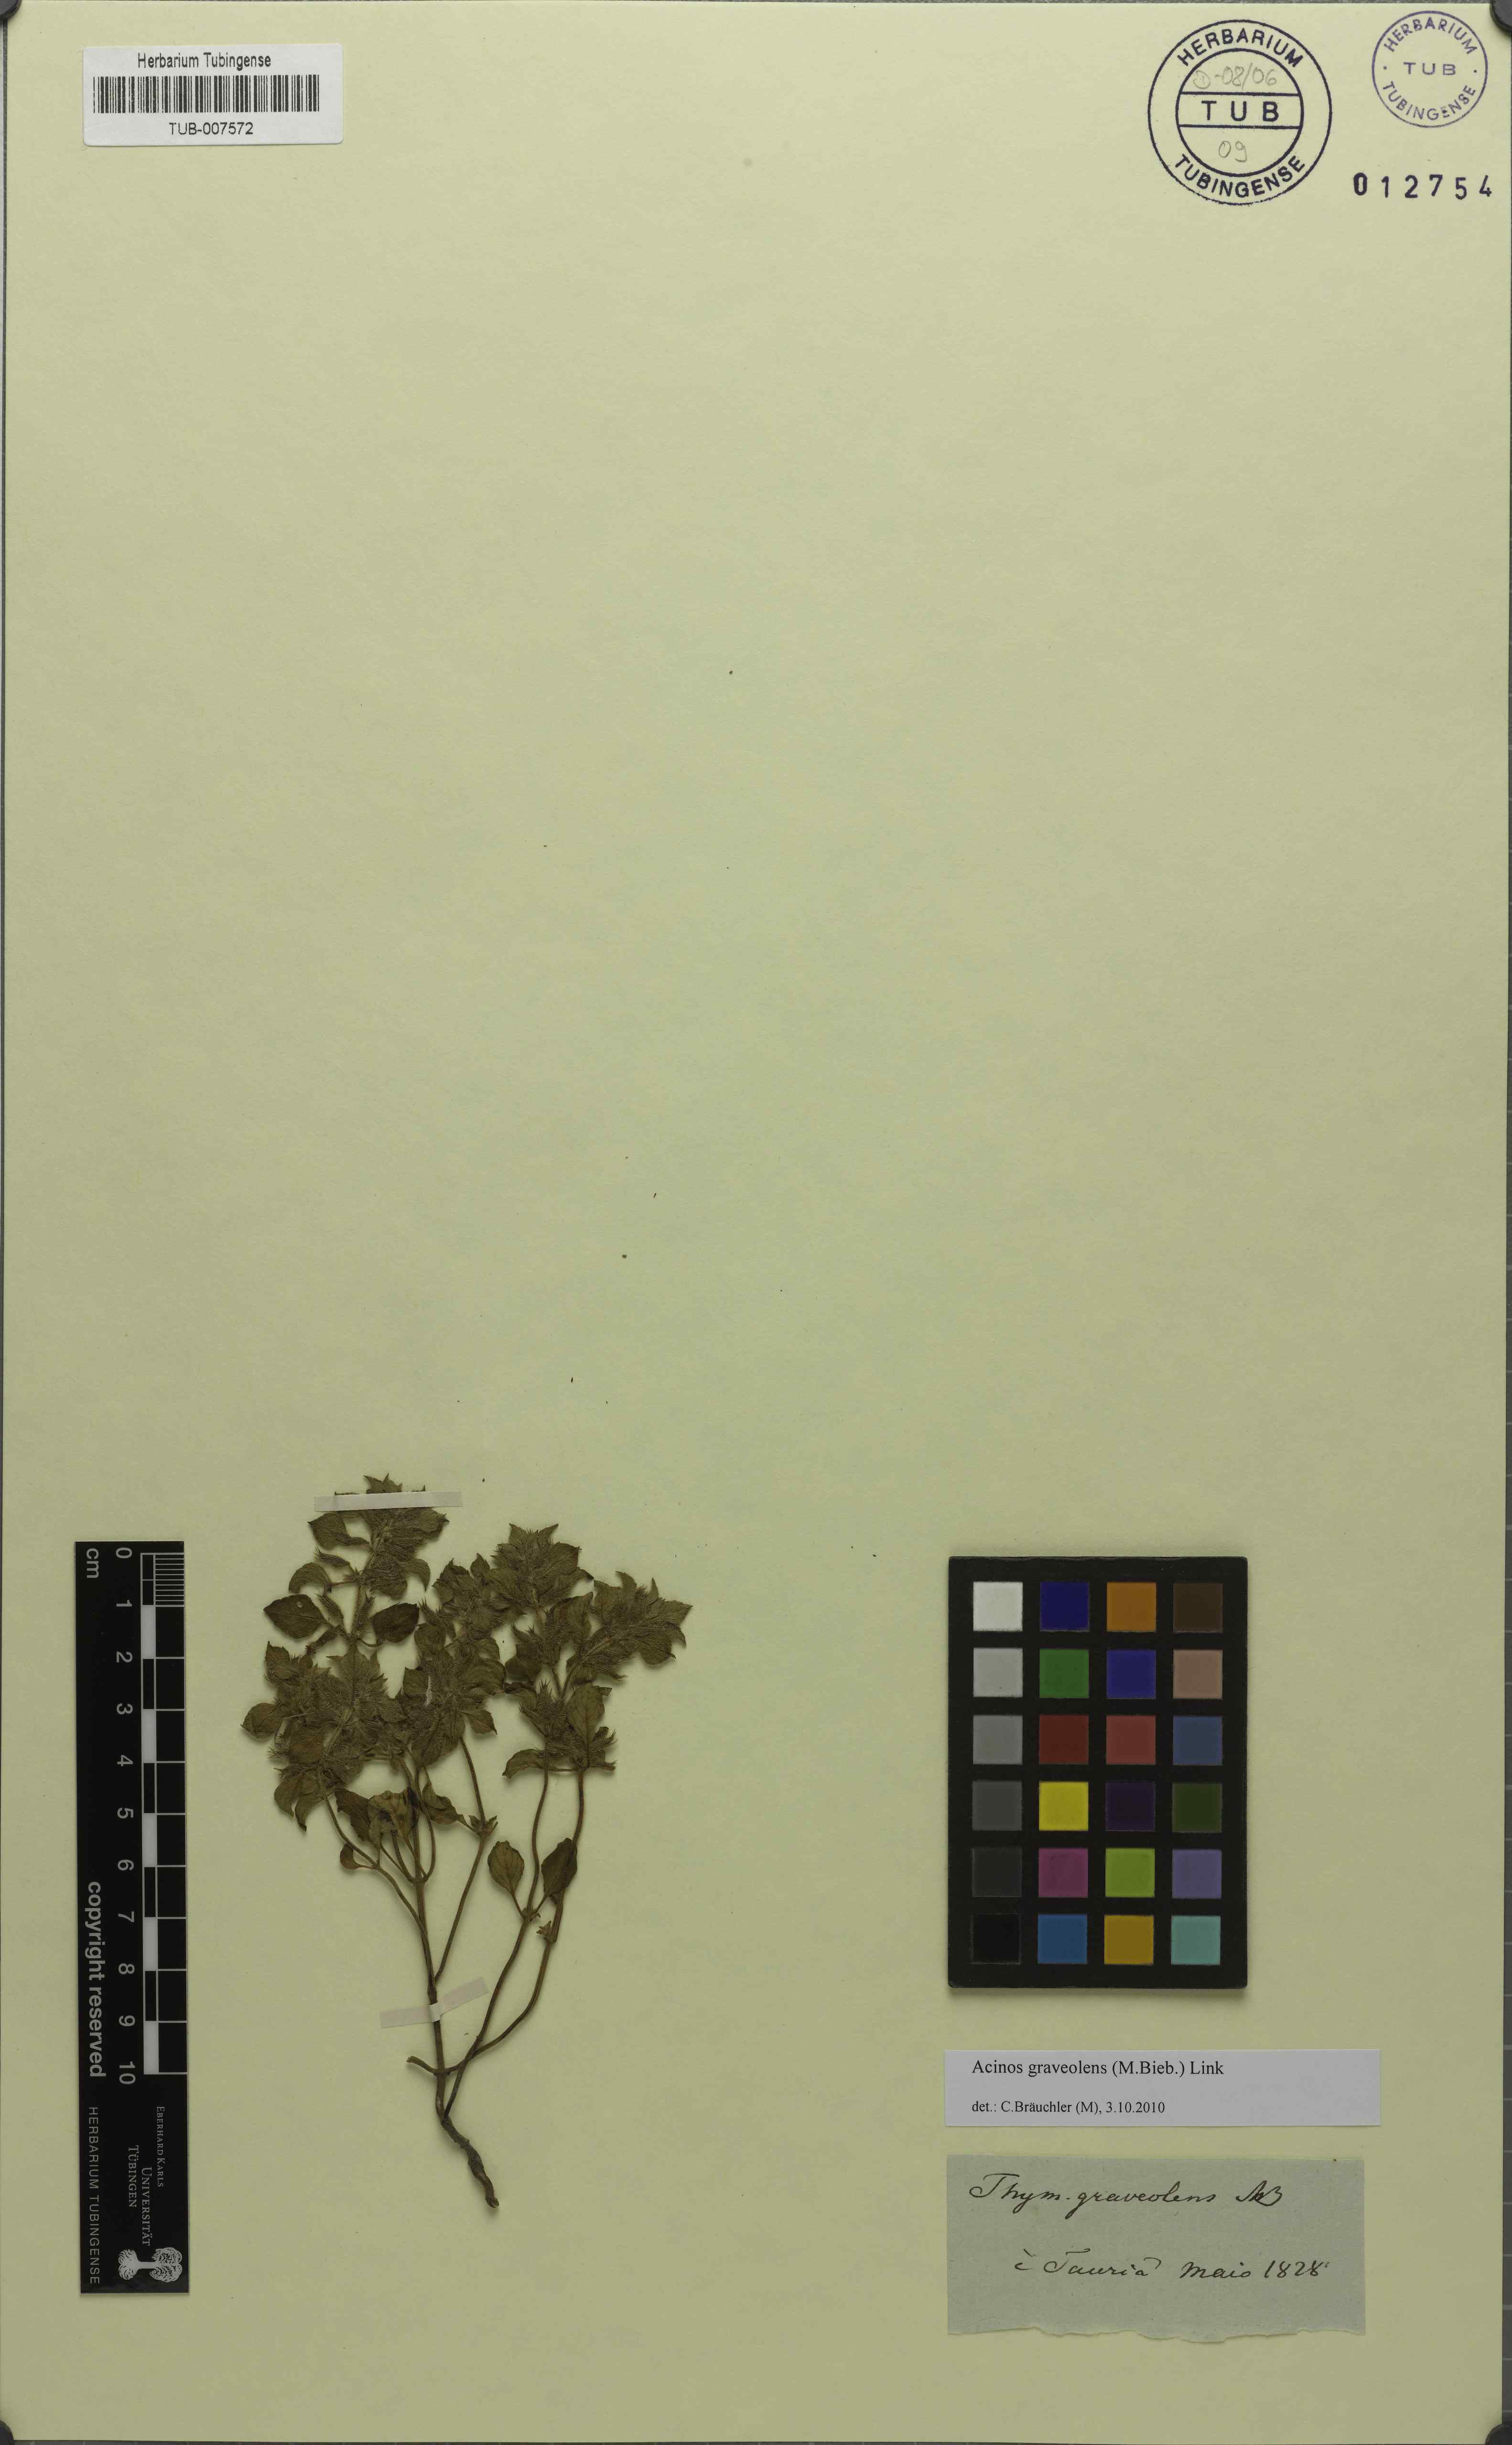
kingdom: Plantae
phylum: Tracheophyta
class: Magnoliopsida
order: Lamiales
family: Lamiaceae
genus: Clinopodium
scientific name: Clinopodium graveolens
